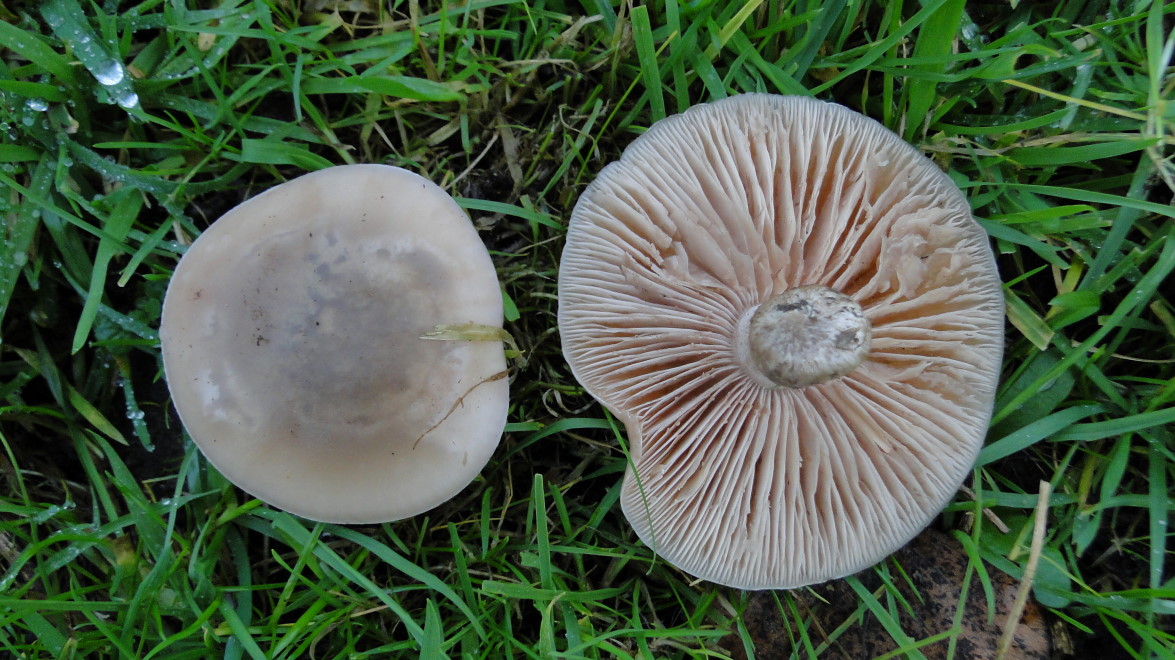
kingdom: Fungi
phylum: Basidiomycota
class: Agaricomycetes
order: Agaricales
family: Tricholomataceae
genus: Lepista
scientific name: Lepista personata
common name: bleg hekseringshat
